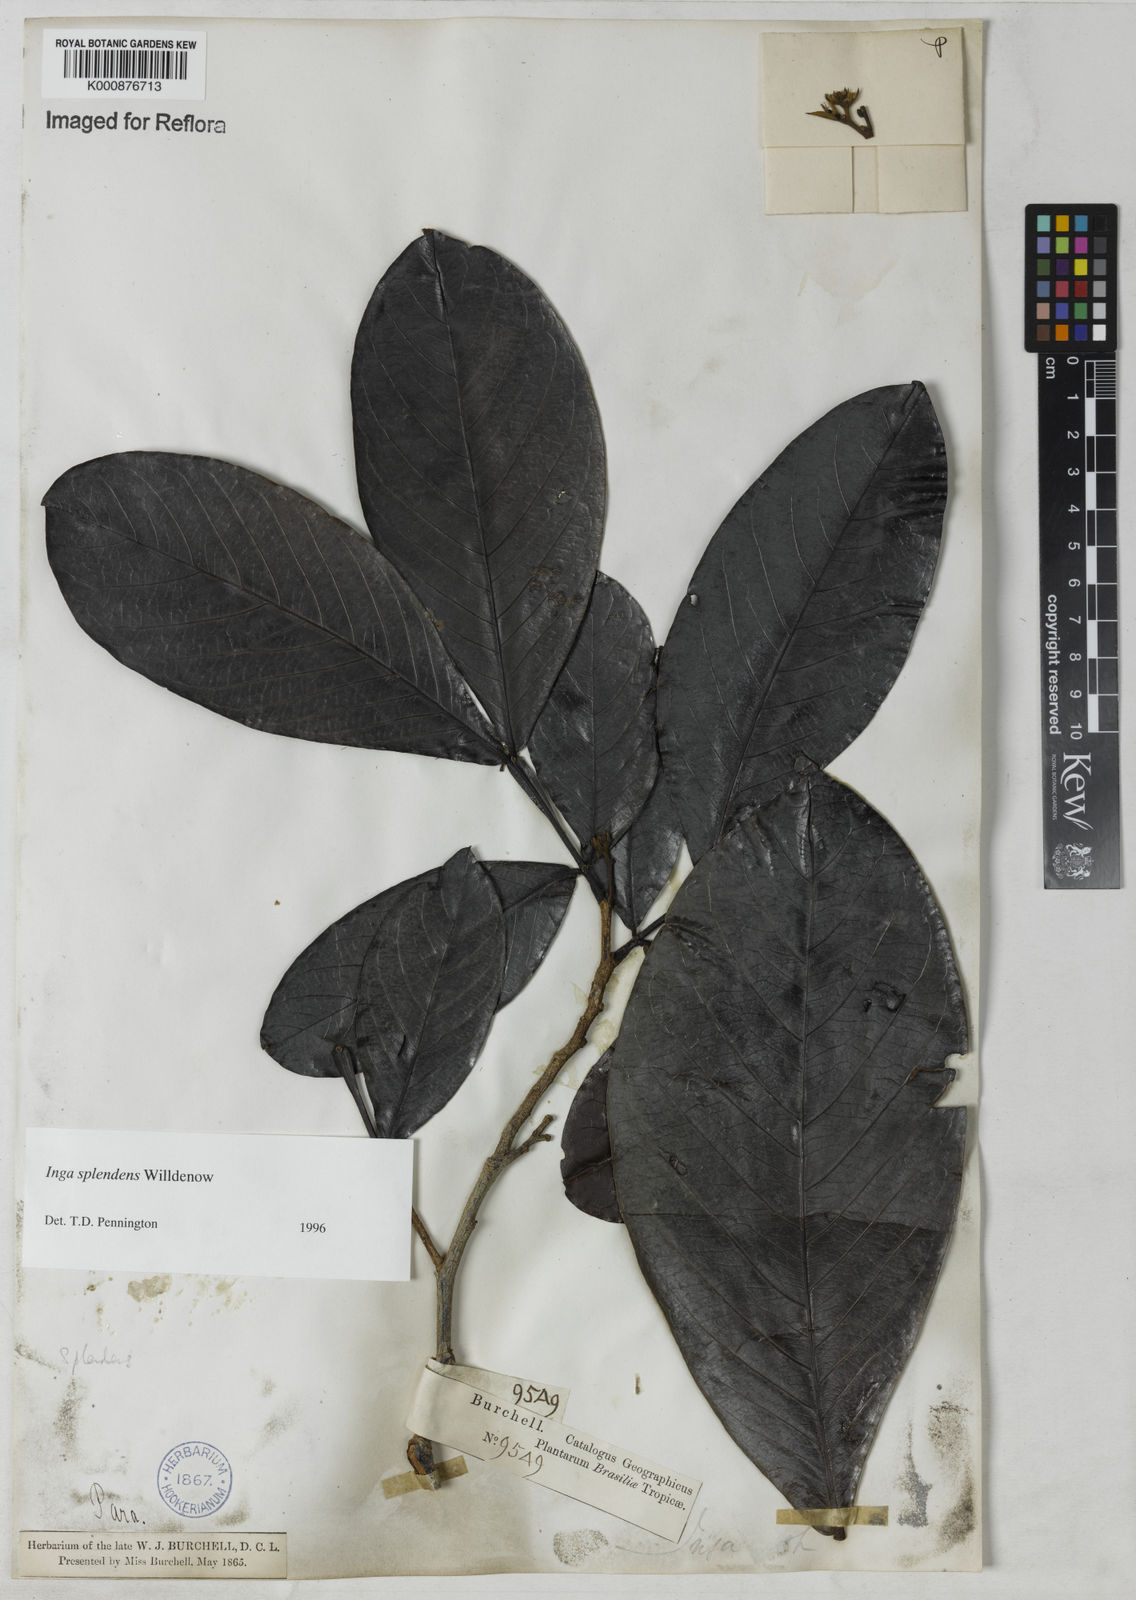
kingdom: Plantae
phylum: Tracheophyta
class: Magnoliopsida
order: Fabales
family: Fabaceae
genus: Inga
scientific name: Inga splendens
